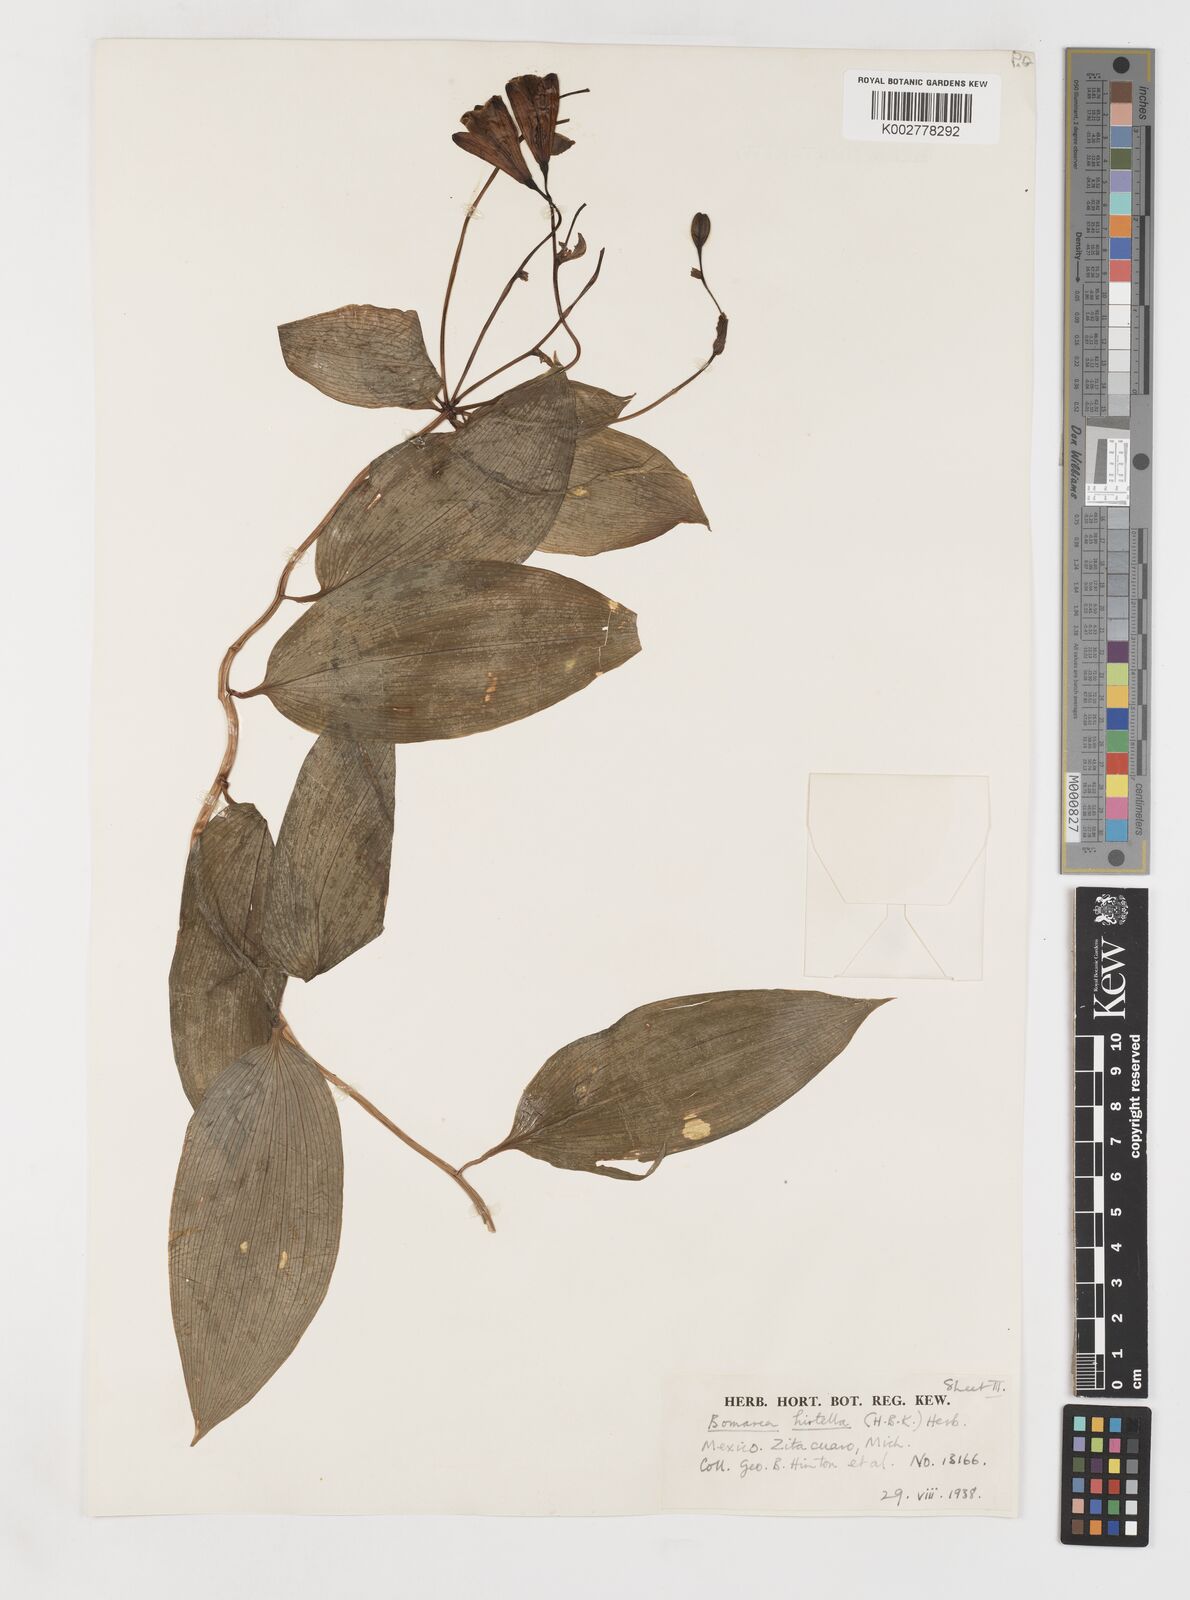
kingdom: Plantae
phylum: Tracheophyta
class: Liliopsida
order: Liliales
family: Alstroemeriaceae
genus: Bomarea
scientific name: Bomarea edulis
